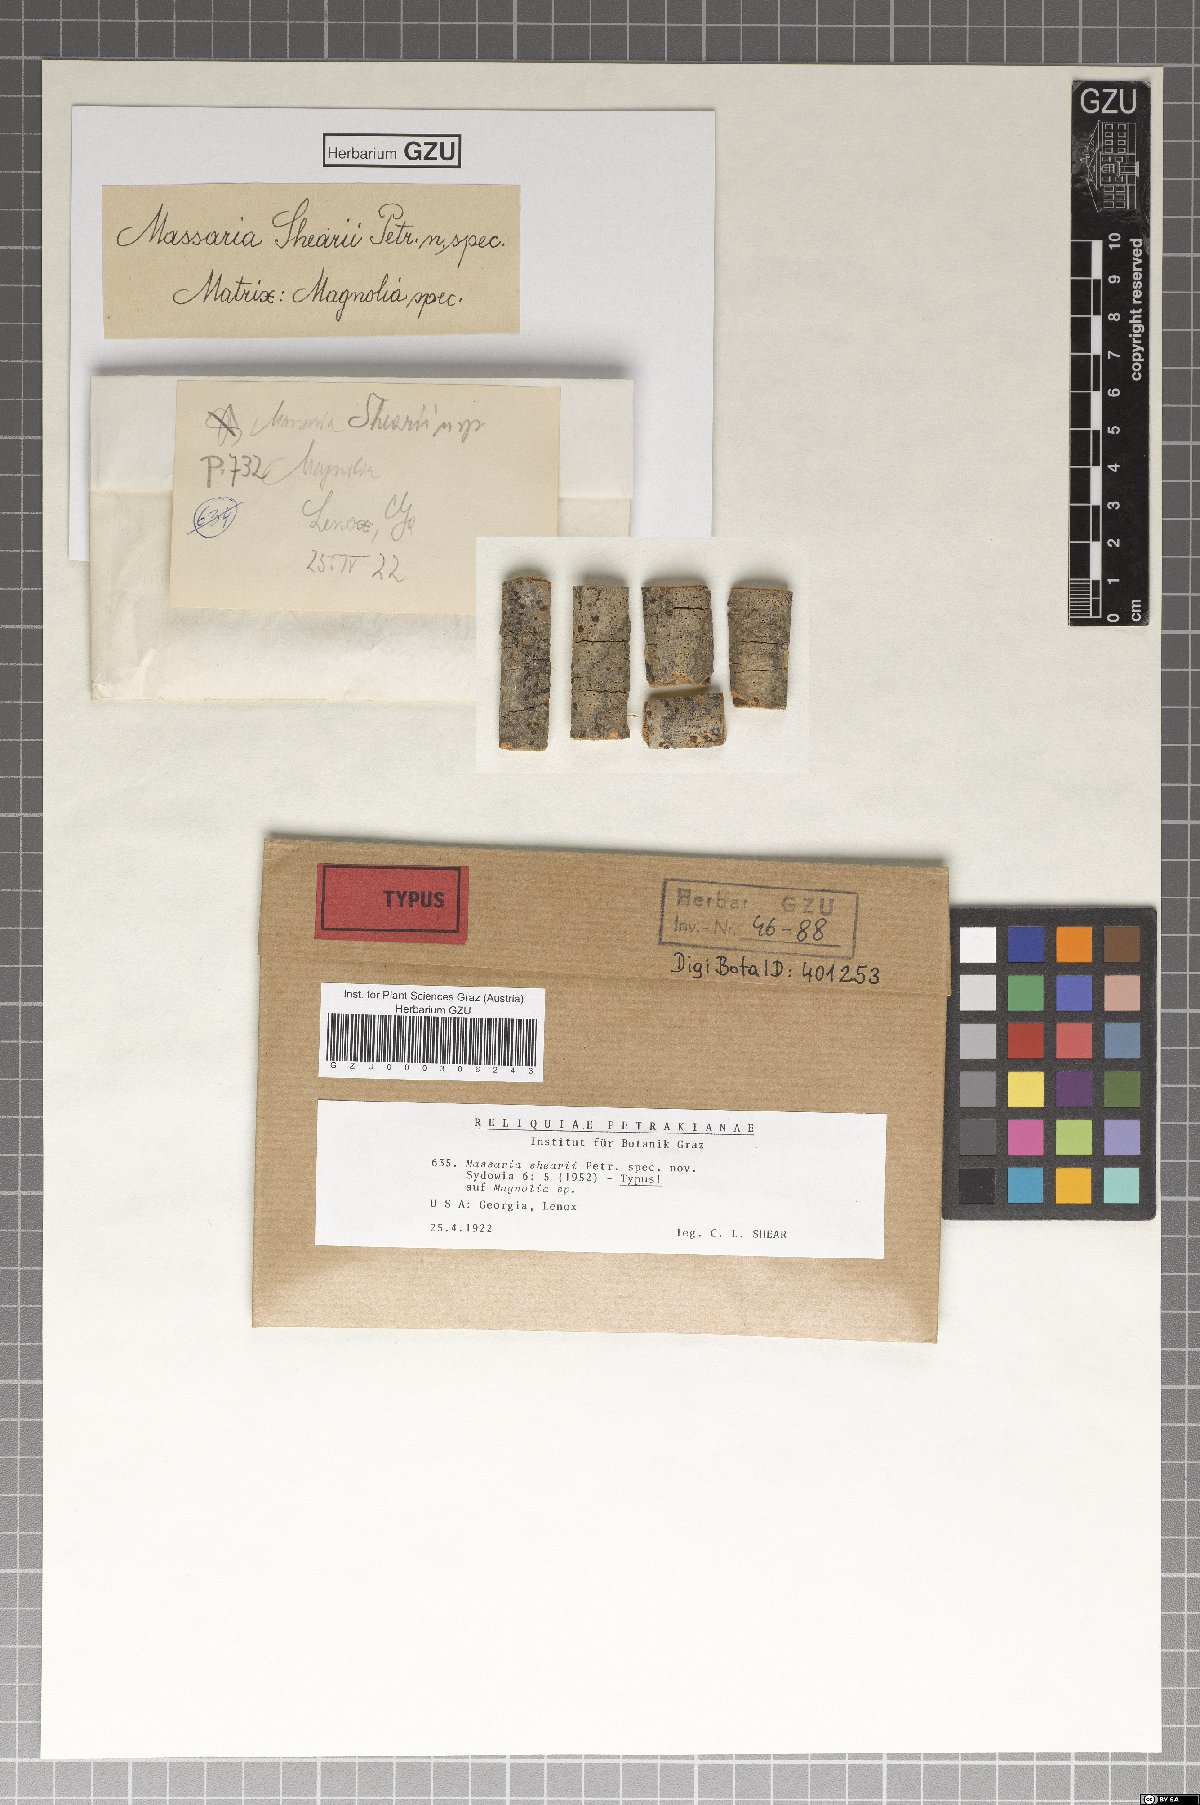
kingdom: Fungi
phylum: Ascomycota
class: Dothideomycetes
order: Pleosporales
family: Massariaceae
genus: Massaria
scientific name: Massaria shearii
